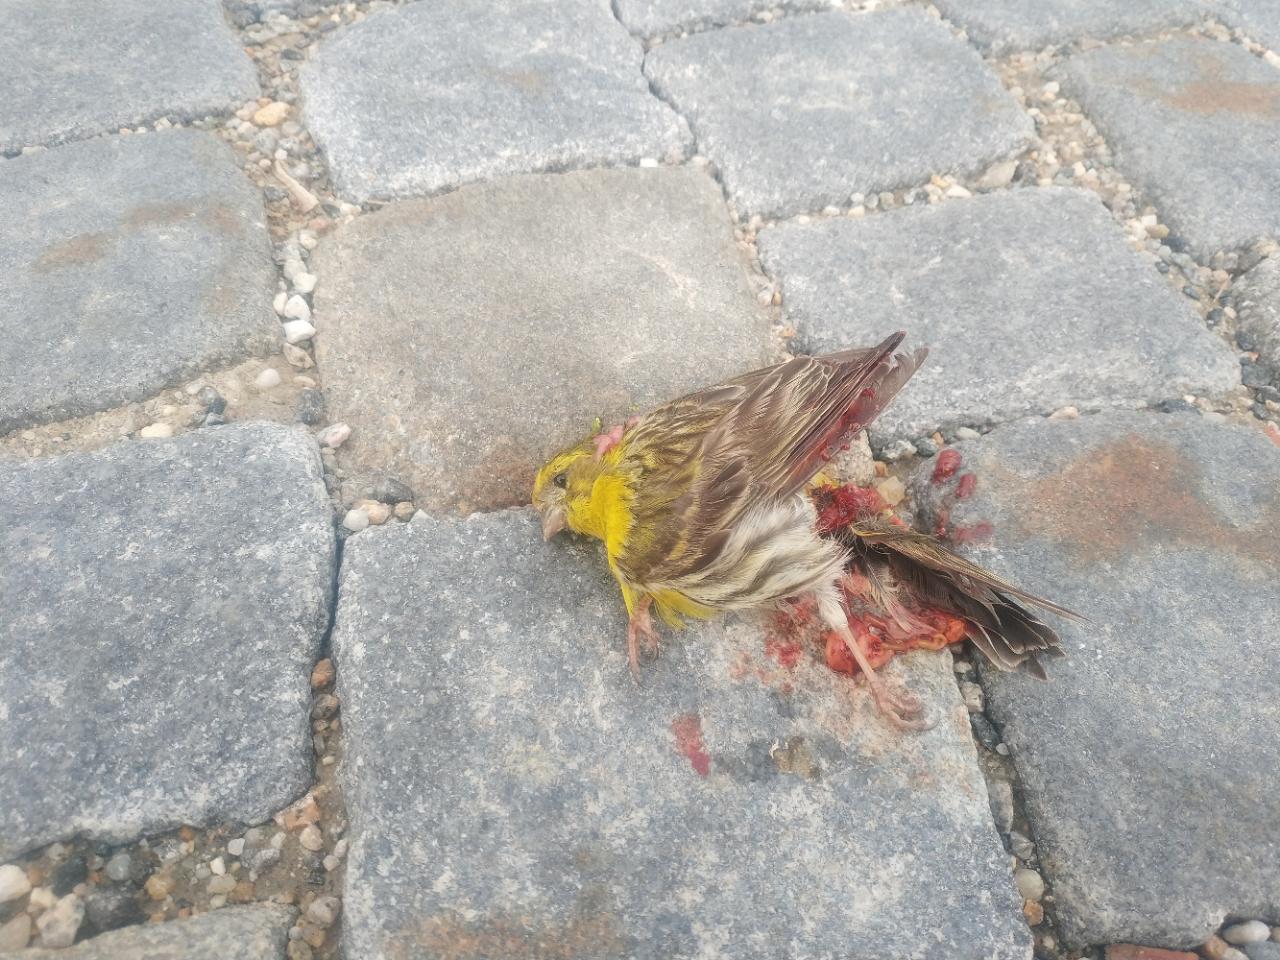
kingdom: Animalia
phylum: Chordata
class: Aves
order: Passeriformes
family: Fringillidae
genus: Serinus
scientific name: Serinus serinus
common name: European serin
